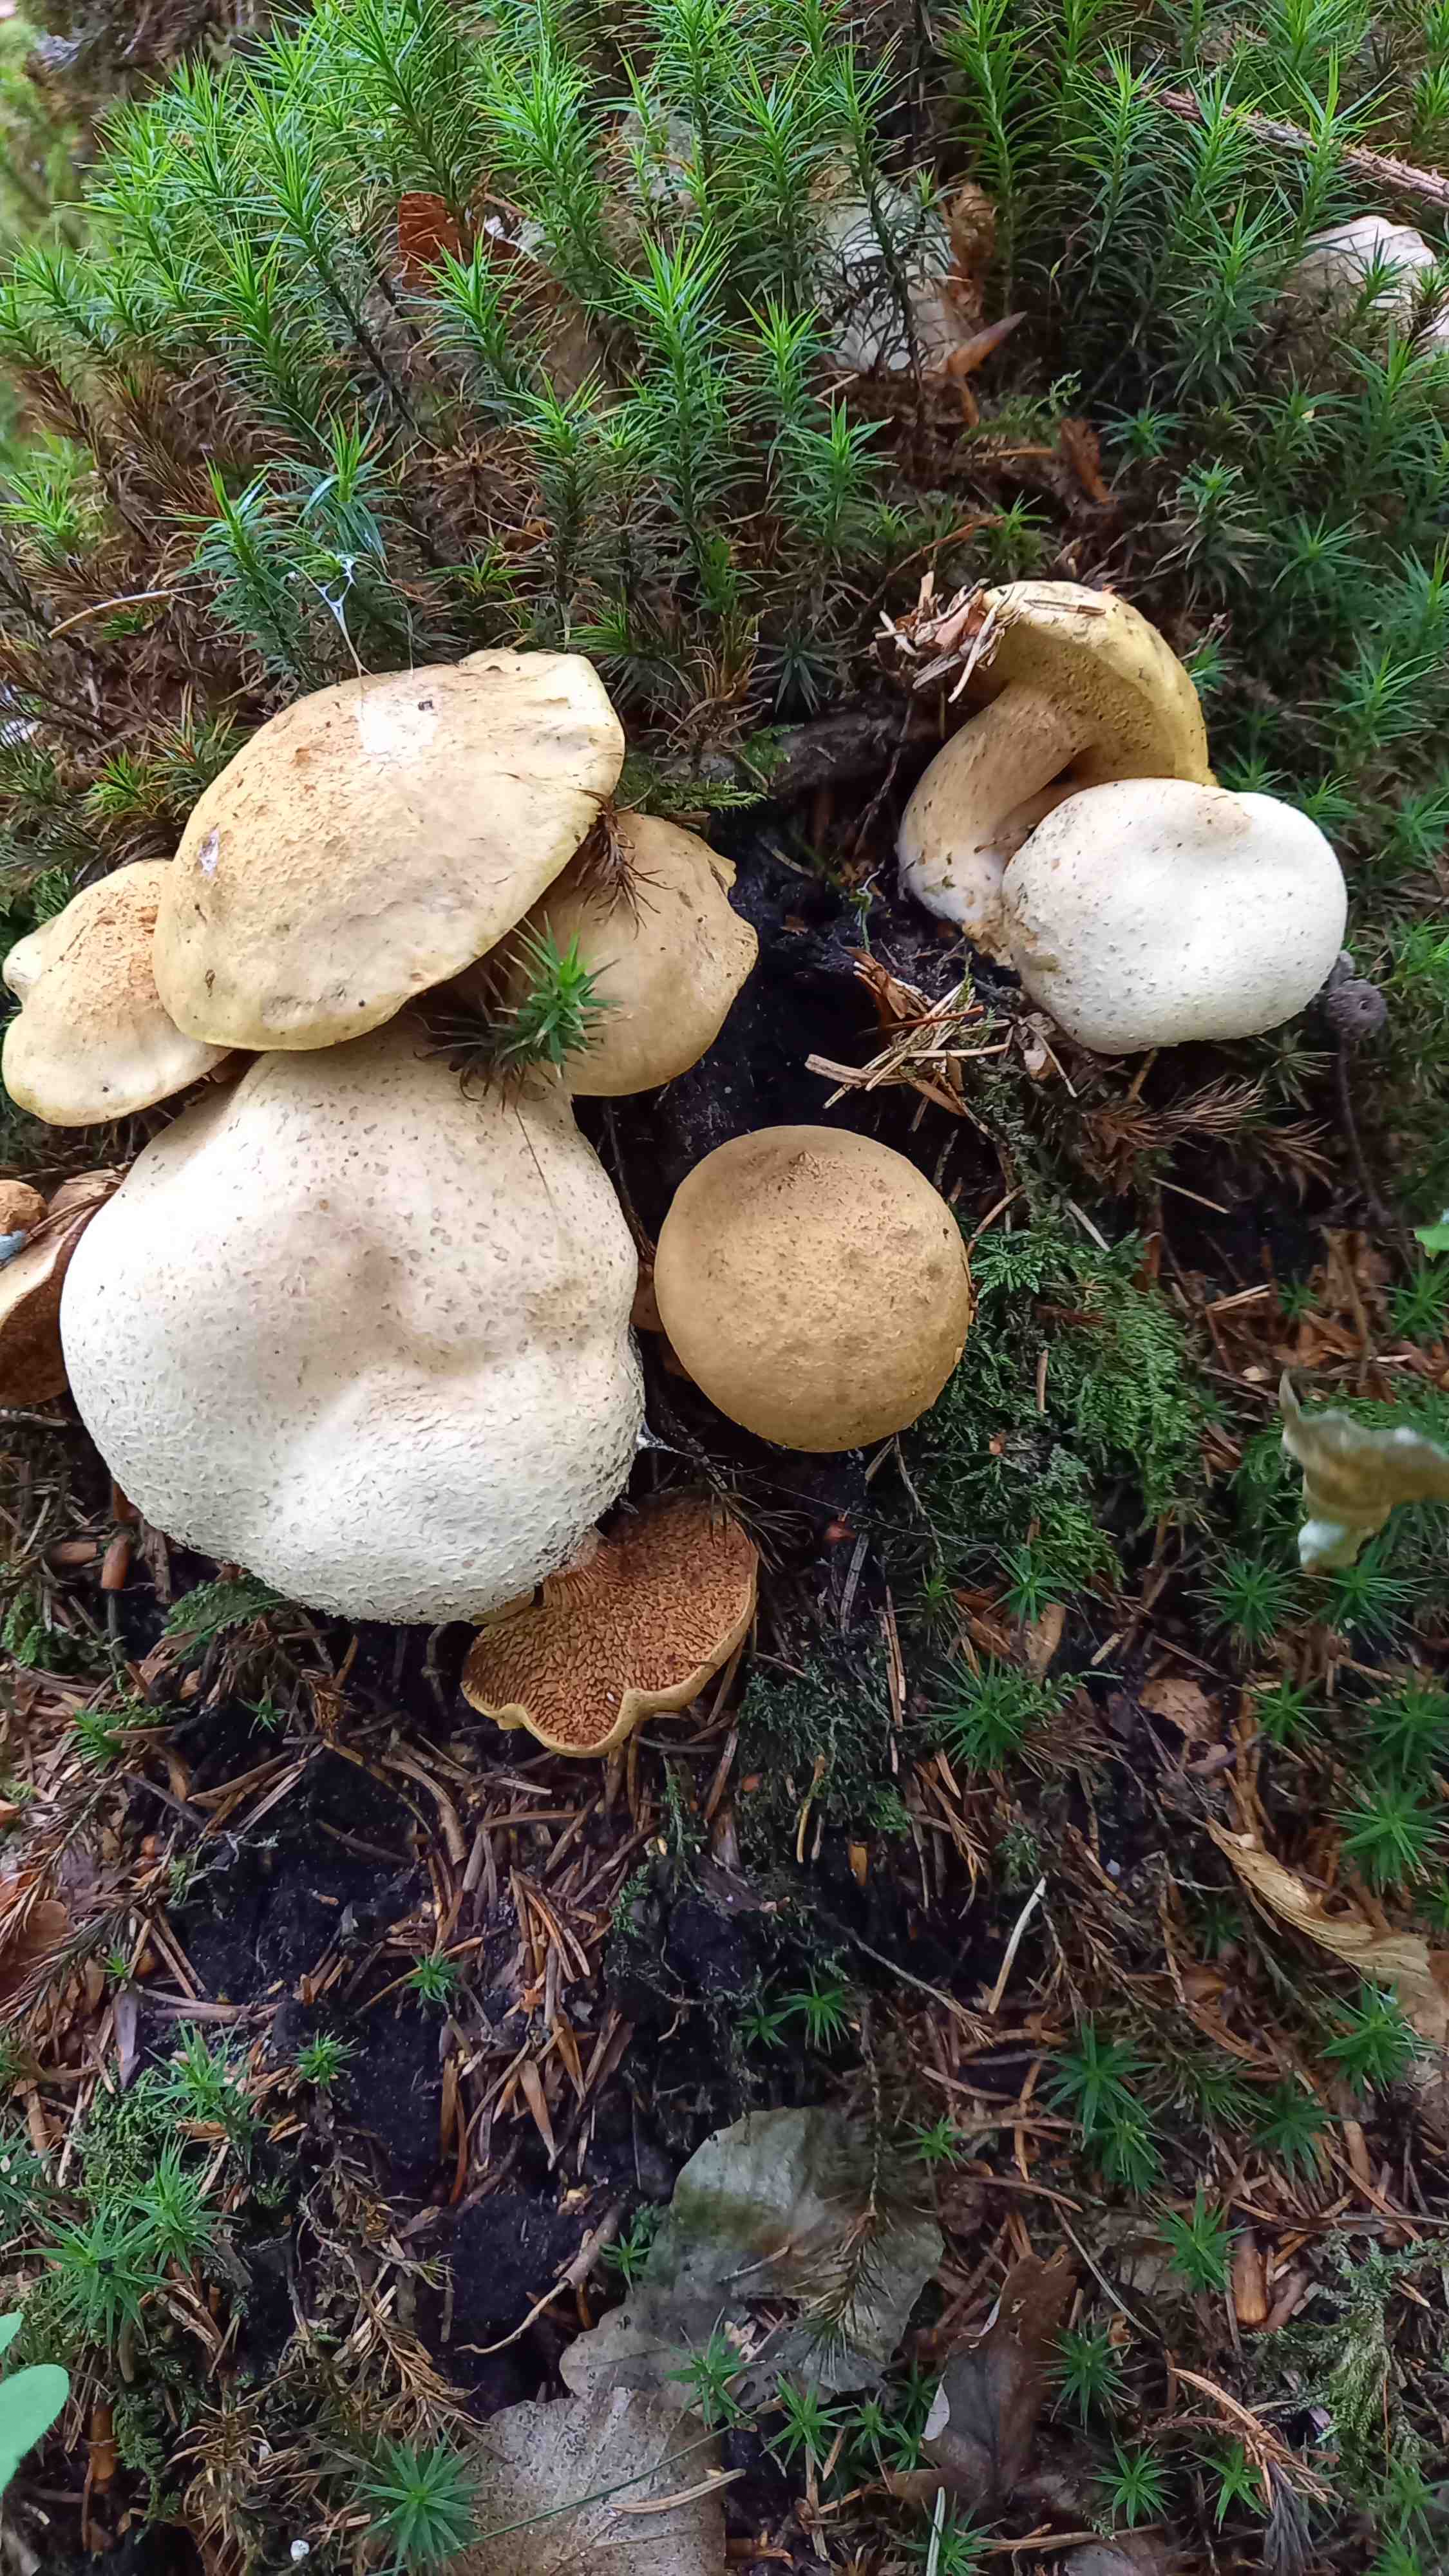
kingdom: Fungi
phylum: Basidiomycota
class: Agaricomycetes
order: Boletales
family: Boletaceae
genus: Pseudoboletus
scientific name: Pseudoboletus parasiticus
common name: snyltende rørhat
